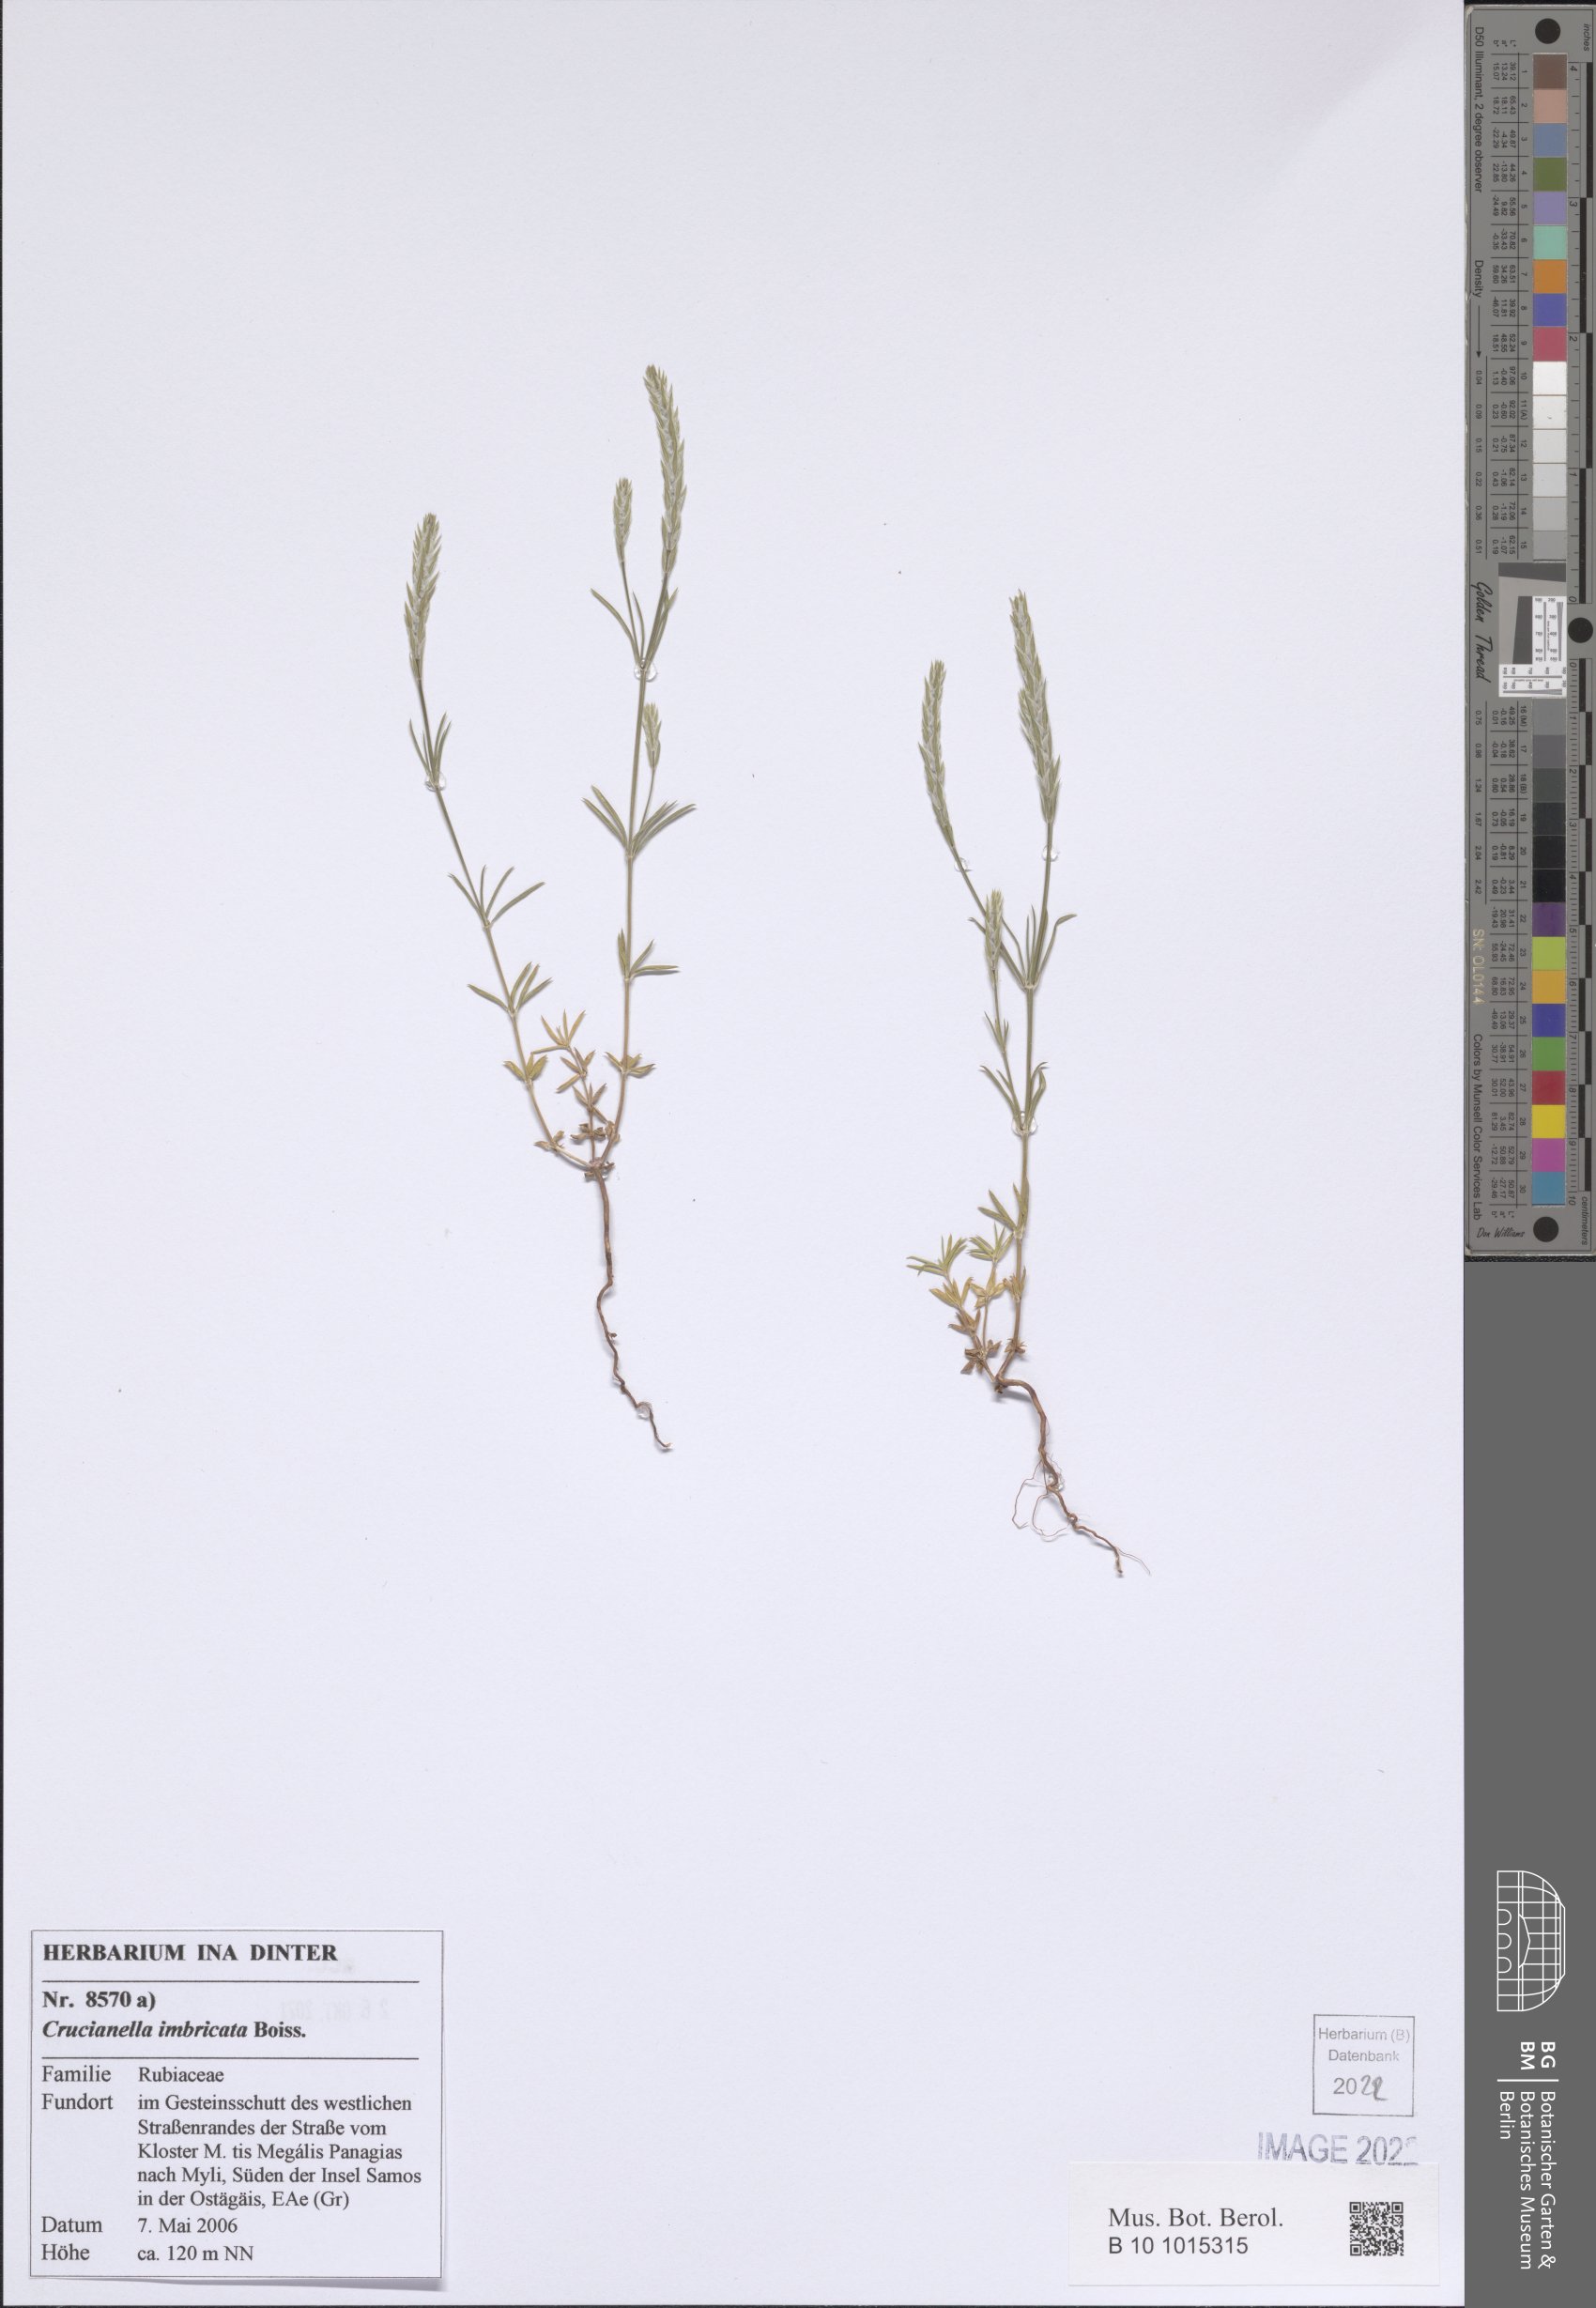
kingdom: Plantae
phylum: Tracheophyta
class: Magnoliopsida
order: Gentianales
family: Rubiaceae
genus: Crucianella
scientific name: Crucianella imbricata
